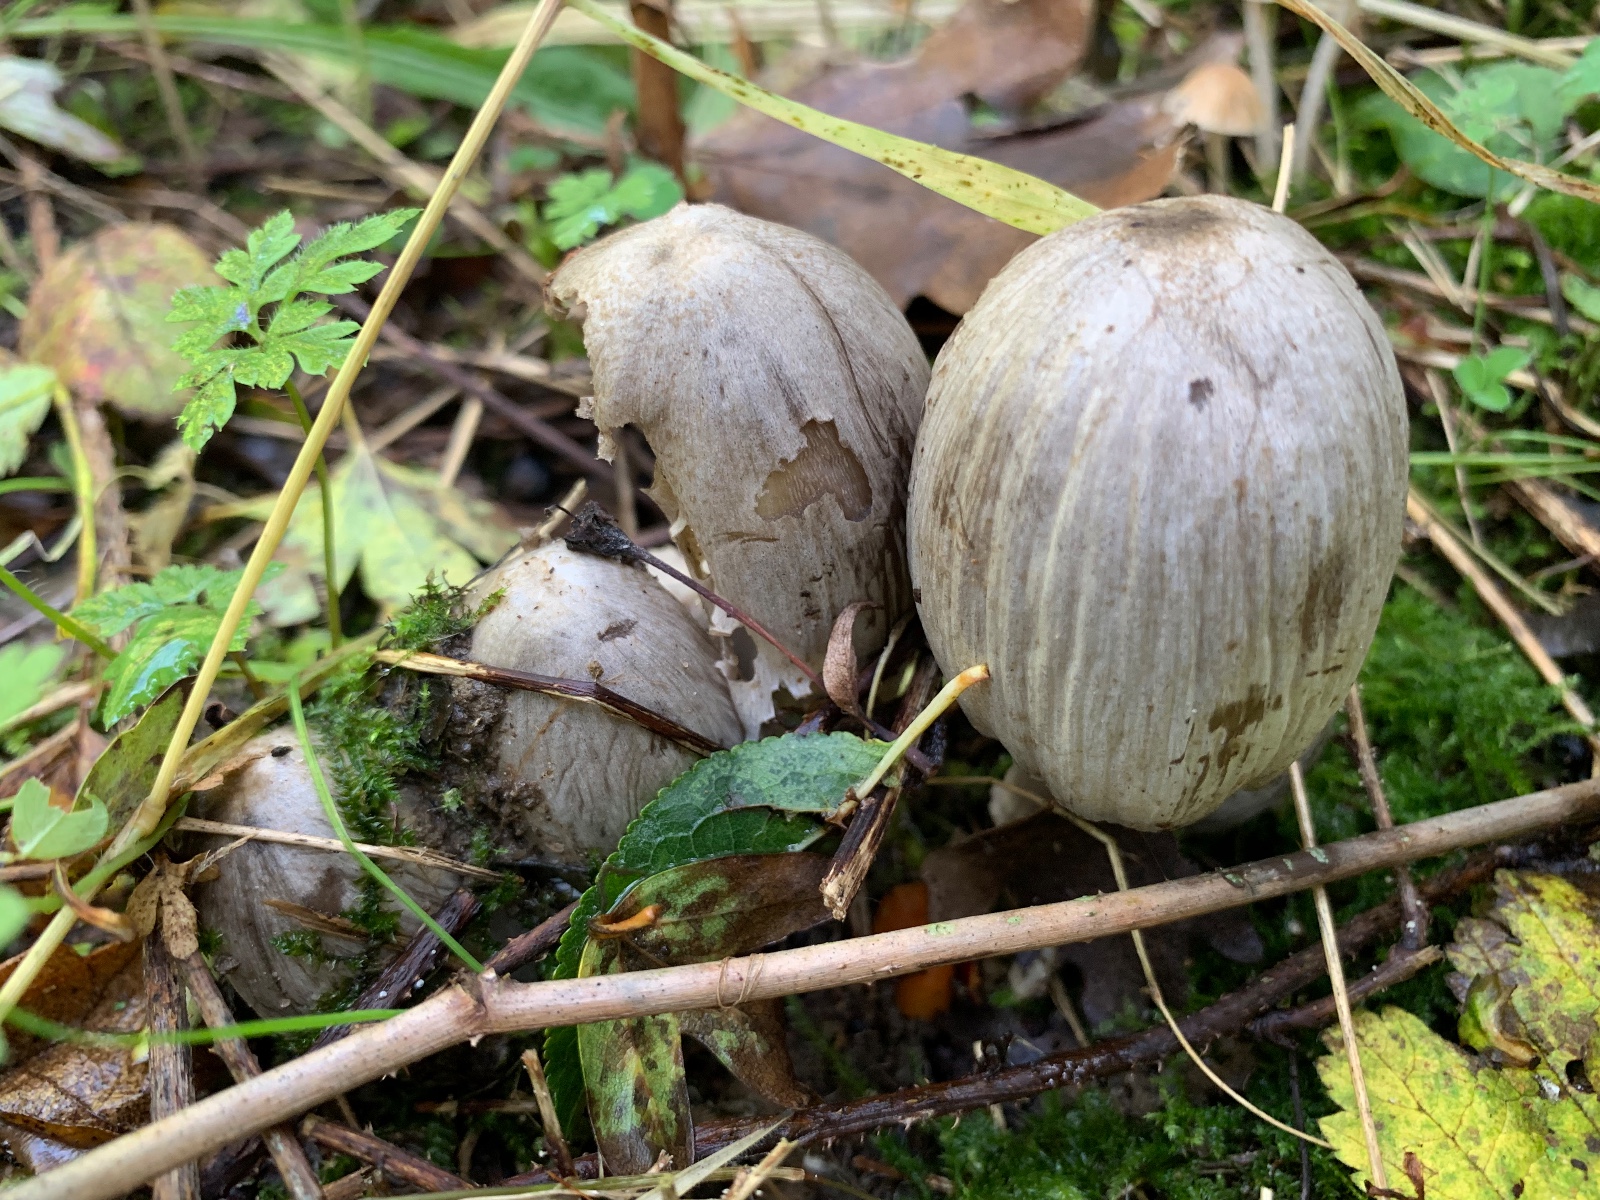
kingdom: Fungi
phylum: Basidiomycota
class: Agaricomycetes
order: Agaricales
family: Psathyrellaceae
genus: Coprinopsis
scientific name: Coprinopsis atramentaria
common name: almindelig blækhat
